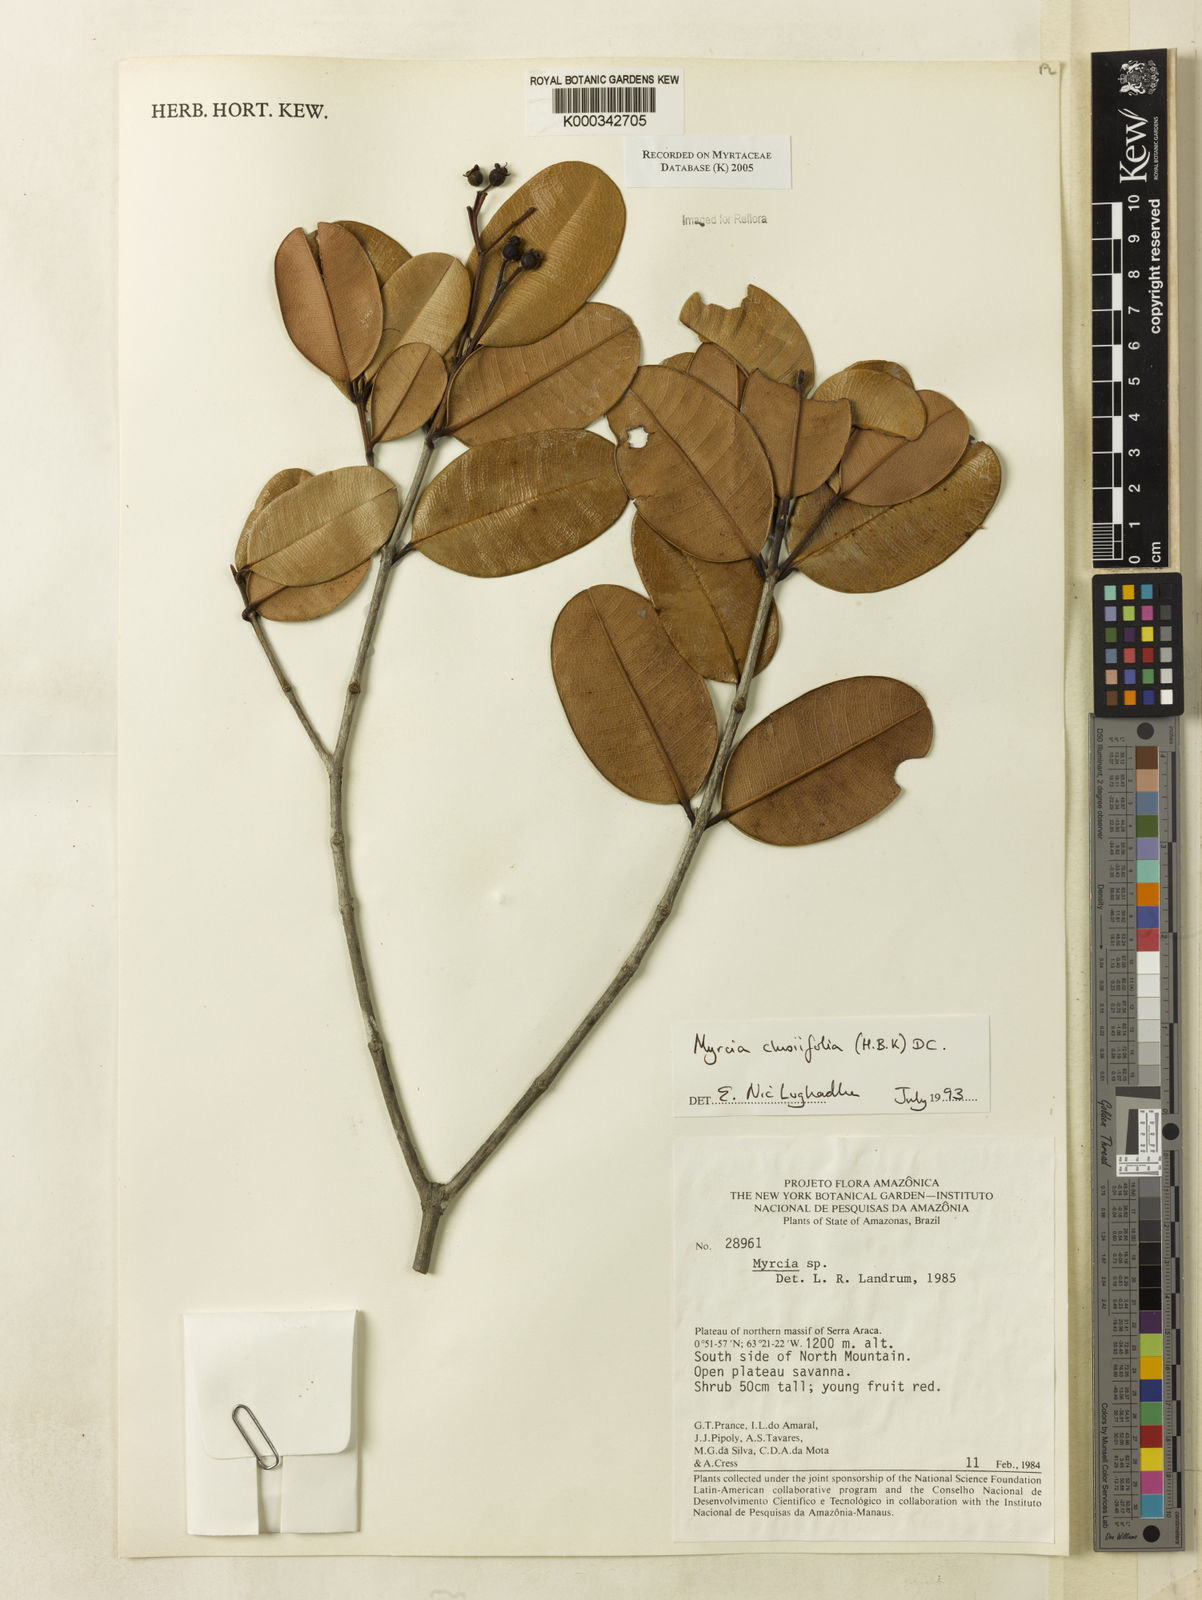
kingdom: Plantae
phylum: Tracheophyta
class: Magnoliopsida
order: Myrtales
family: Myrtaceae
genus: Myrcia
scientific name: Myrcia clusiifolia
